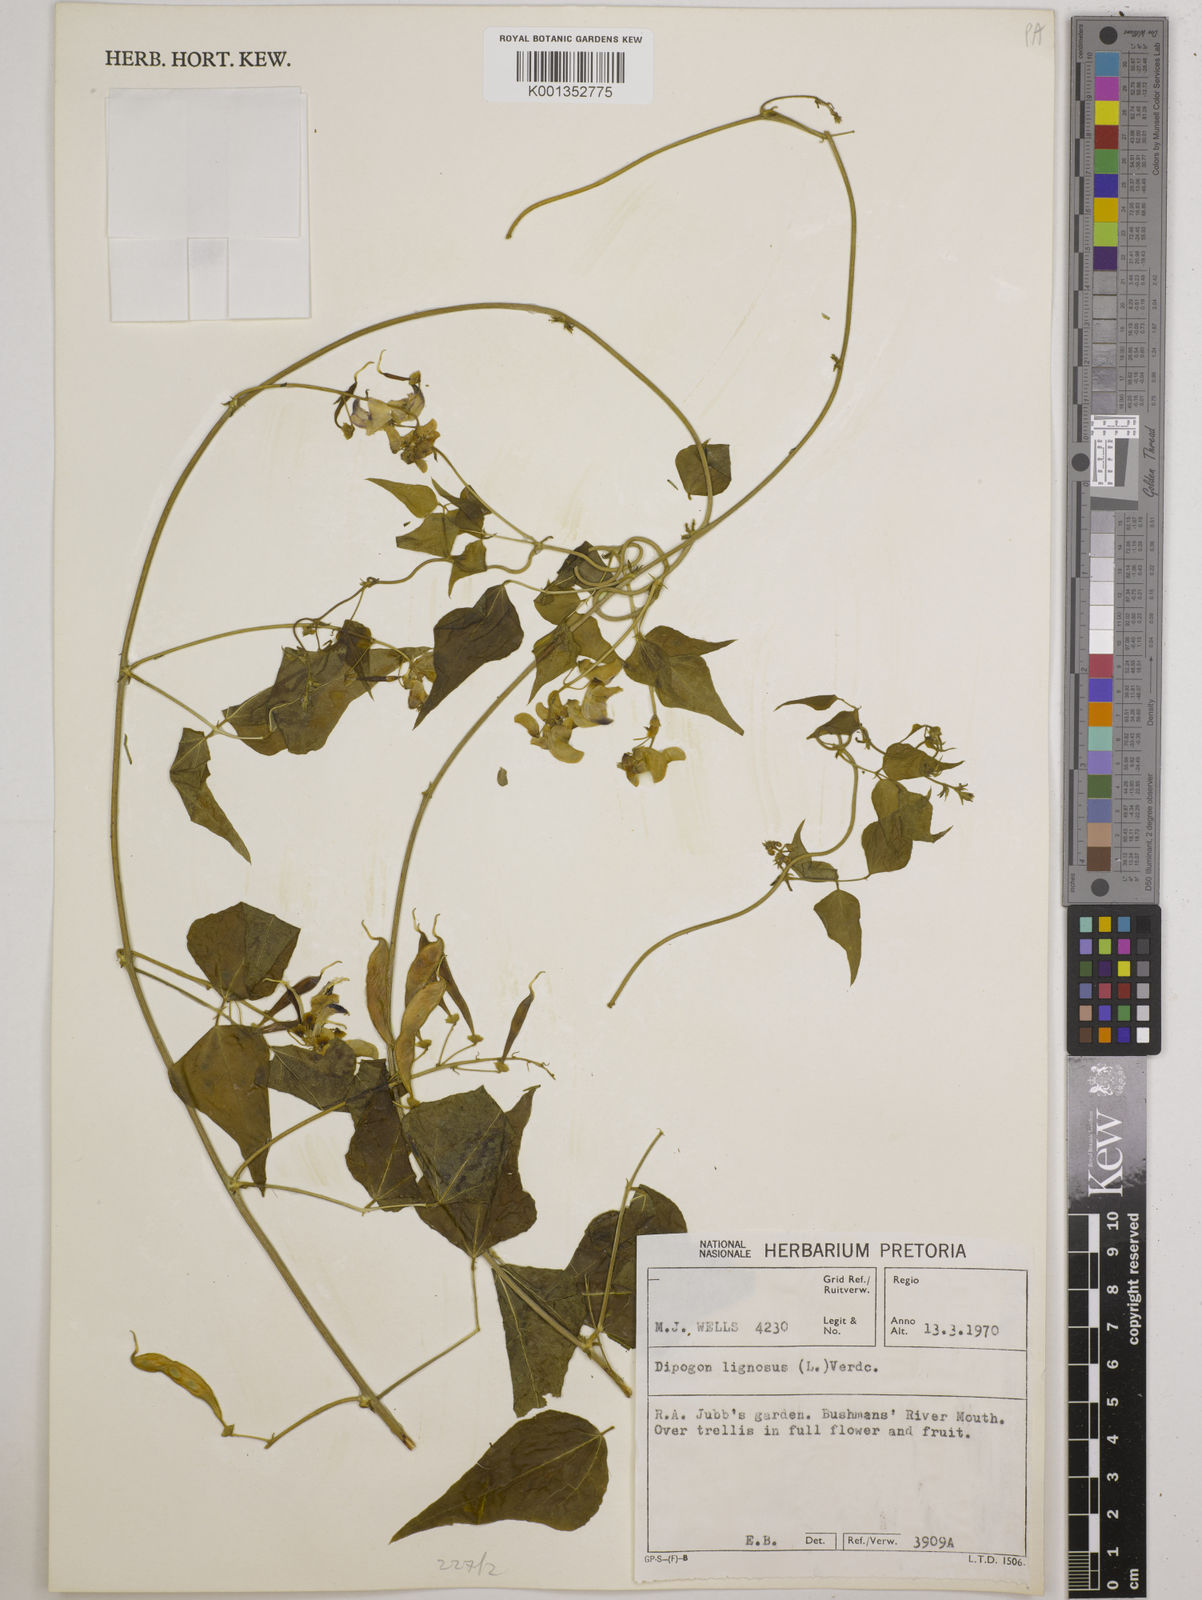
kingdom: Plantae
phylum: Tracheophyta
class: Magnoliopsida
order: Fabales
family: Fabaceae
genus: Dipogon
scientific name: Dipogon lignosus
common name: Okie bean
